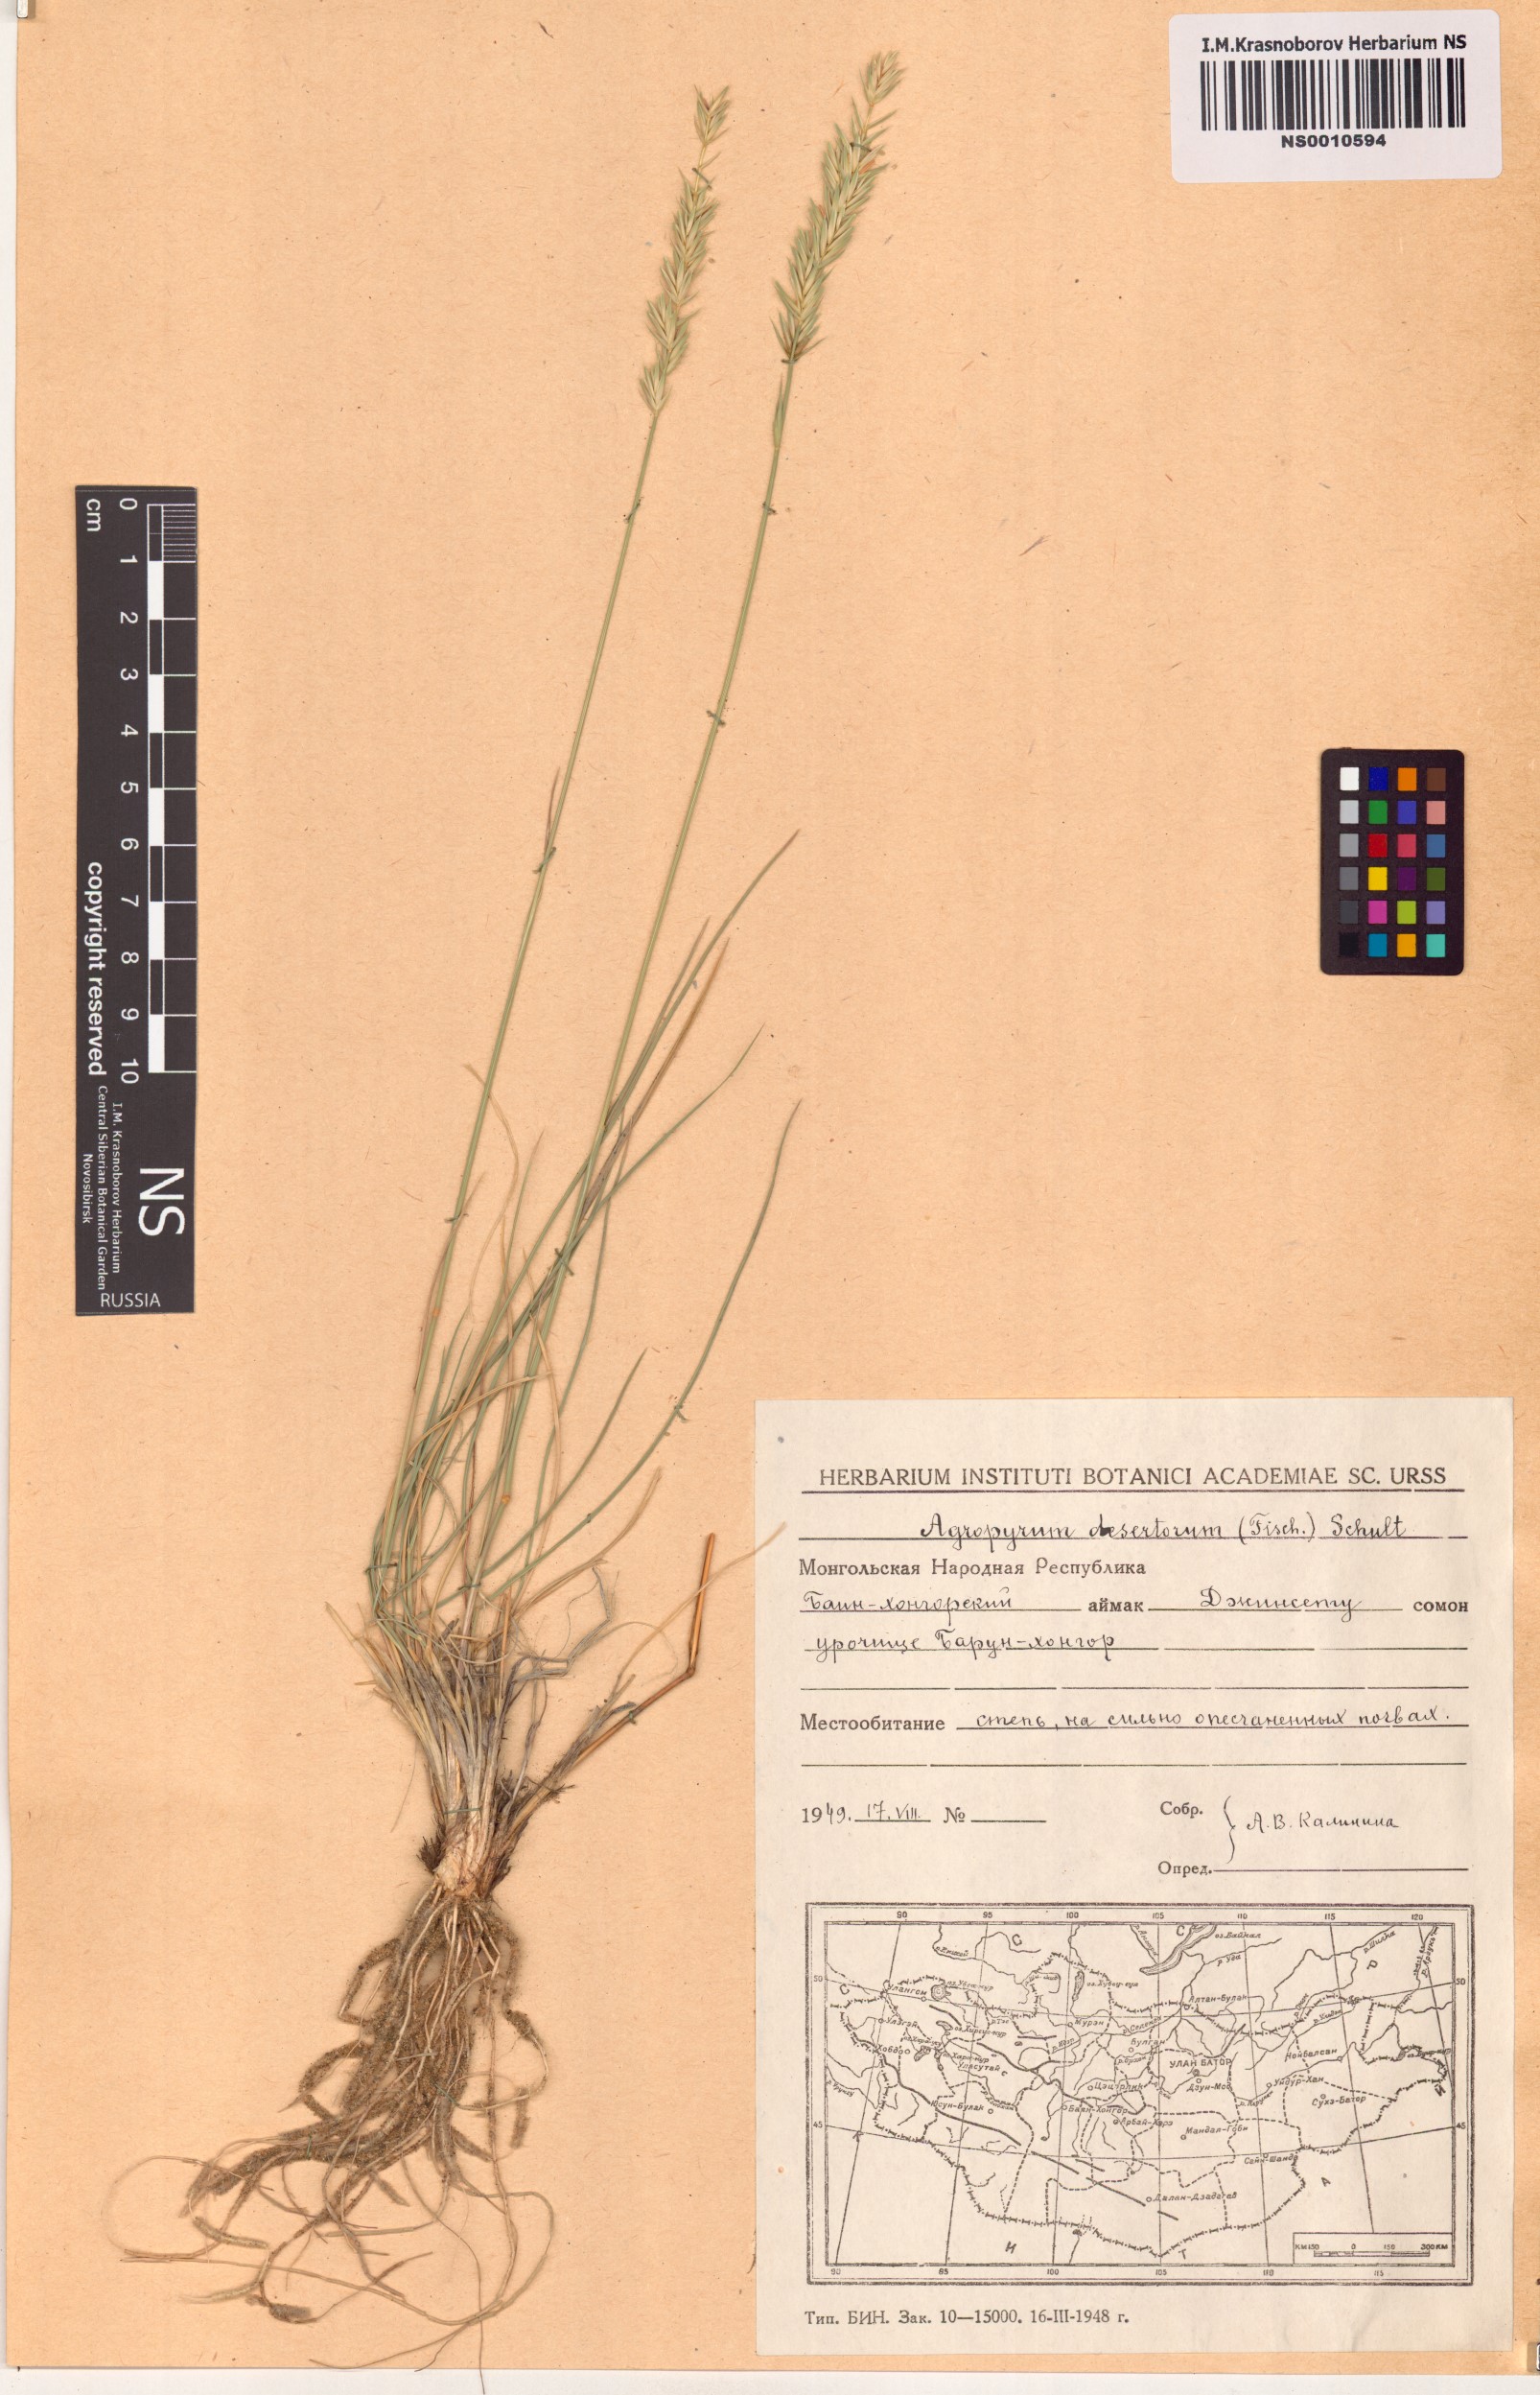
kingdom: Plantae
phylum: Tracheophyta
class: Liliopsida
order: Poales
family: Poaceae
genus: Agropyron
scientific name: Agropyron desertorum
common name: Desert wheatgrass
